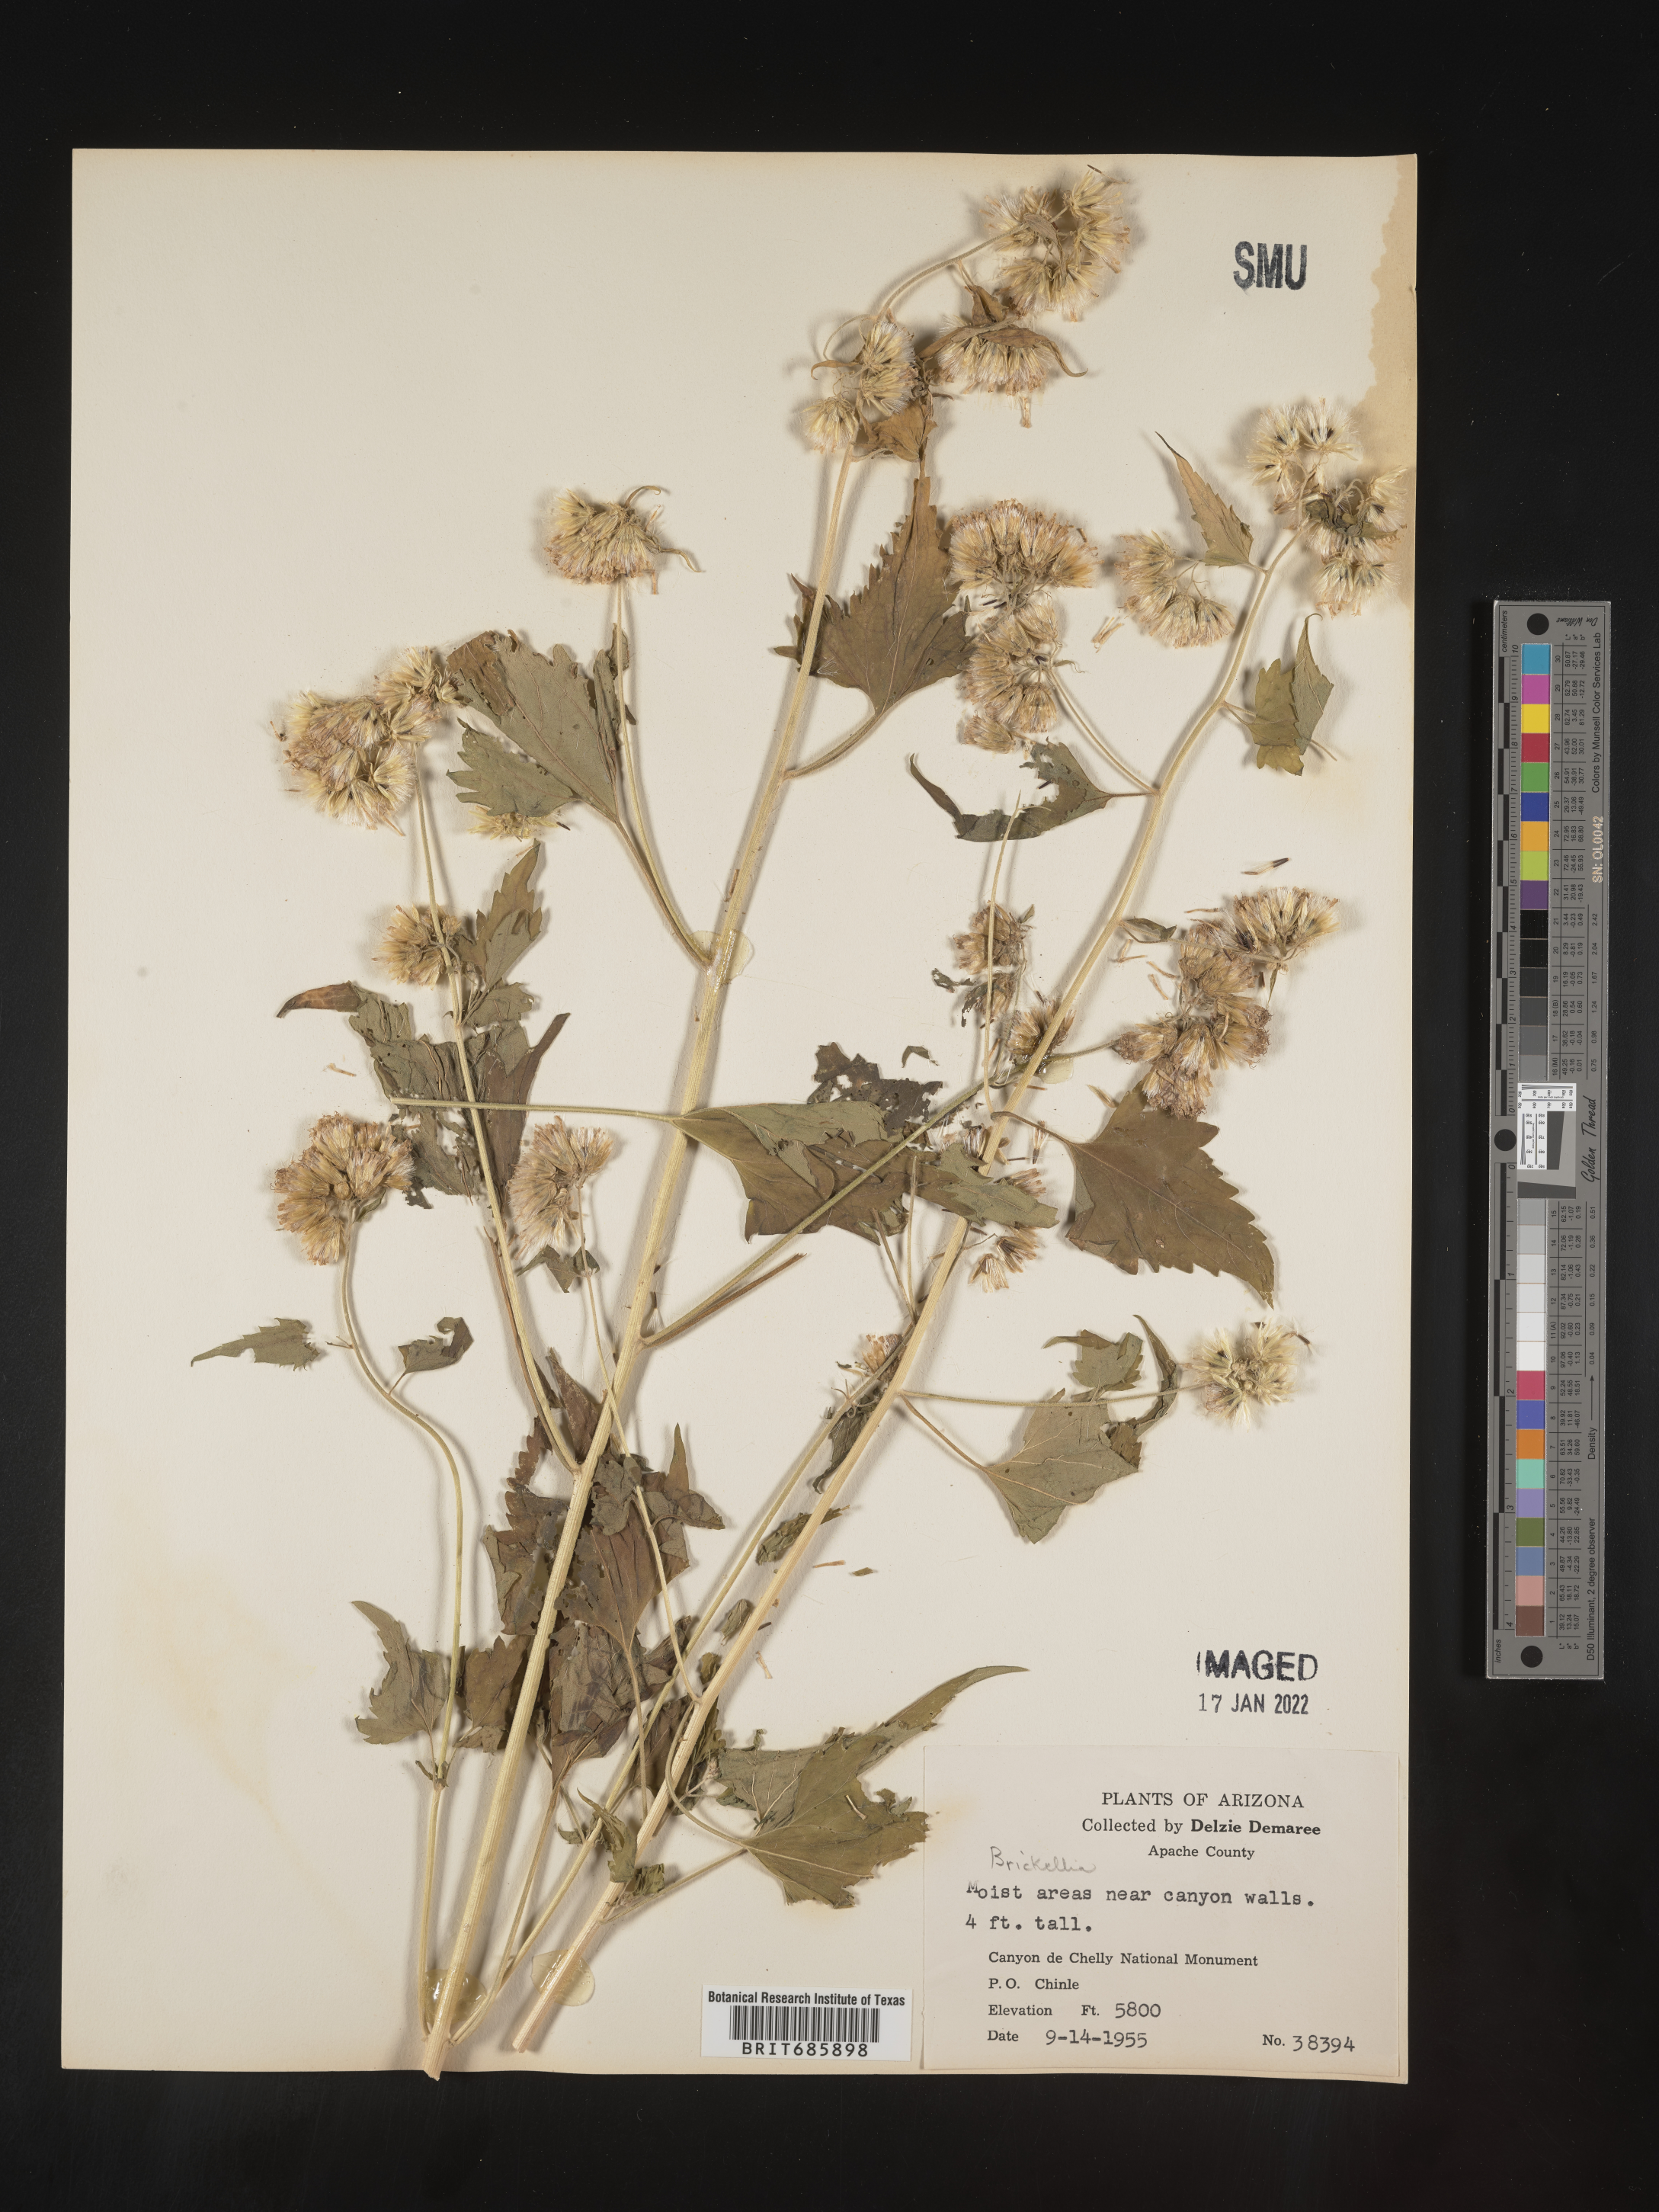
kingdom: Plantae
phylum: Tracheophyta
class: Magnoliopsida
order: Asterales
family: Asteraceae
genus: Brickellia
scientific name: Brickellia grandiflora
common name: Large-flowered brickellia
